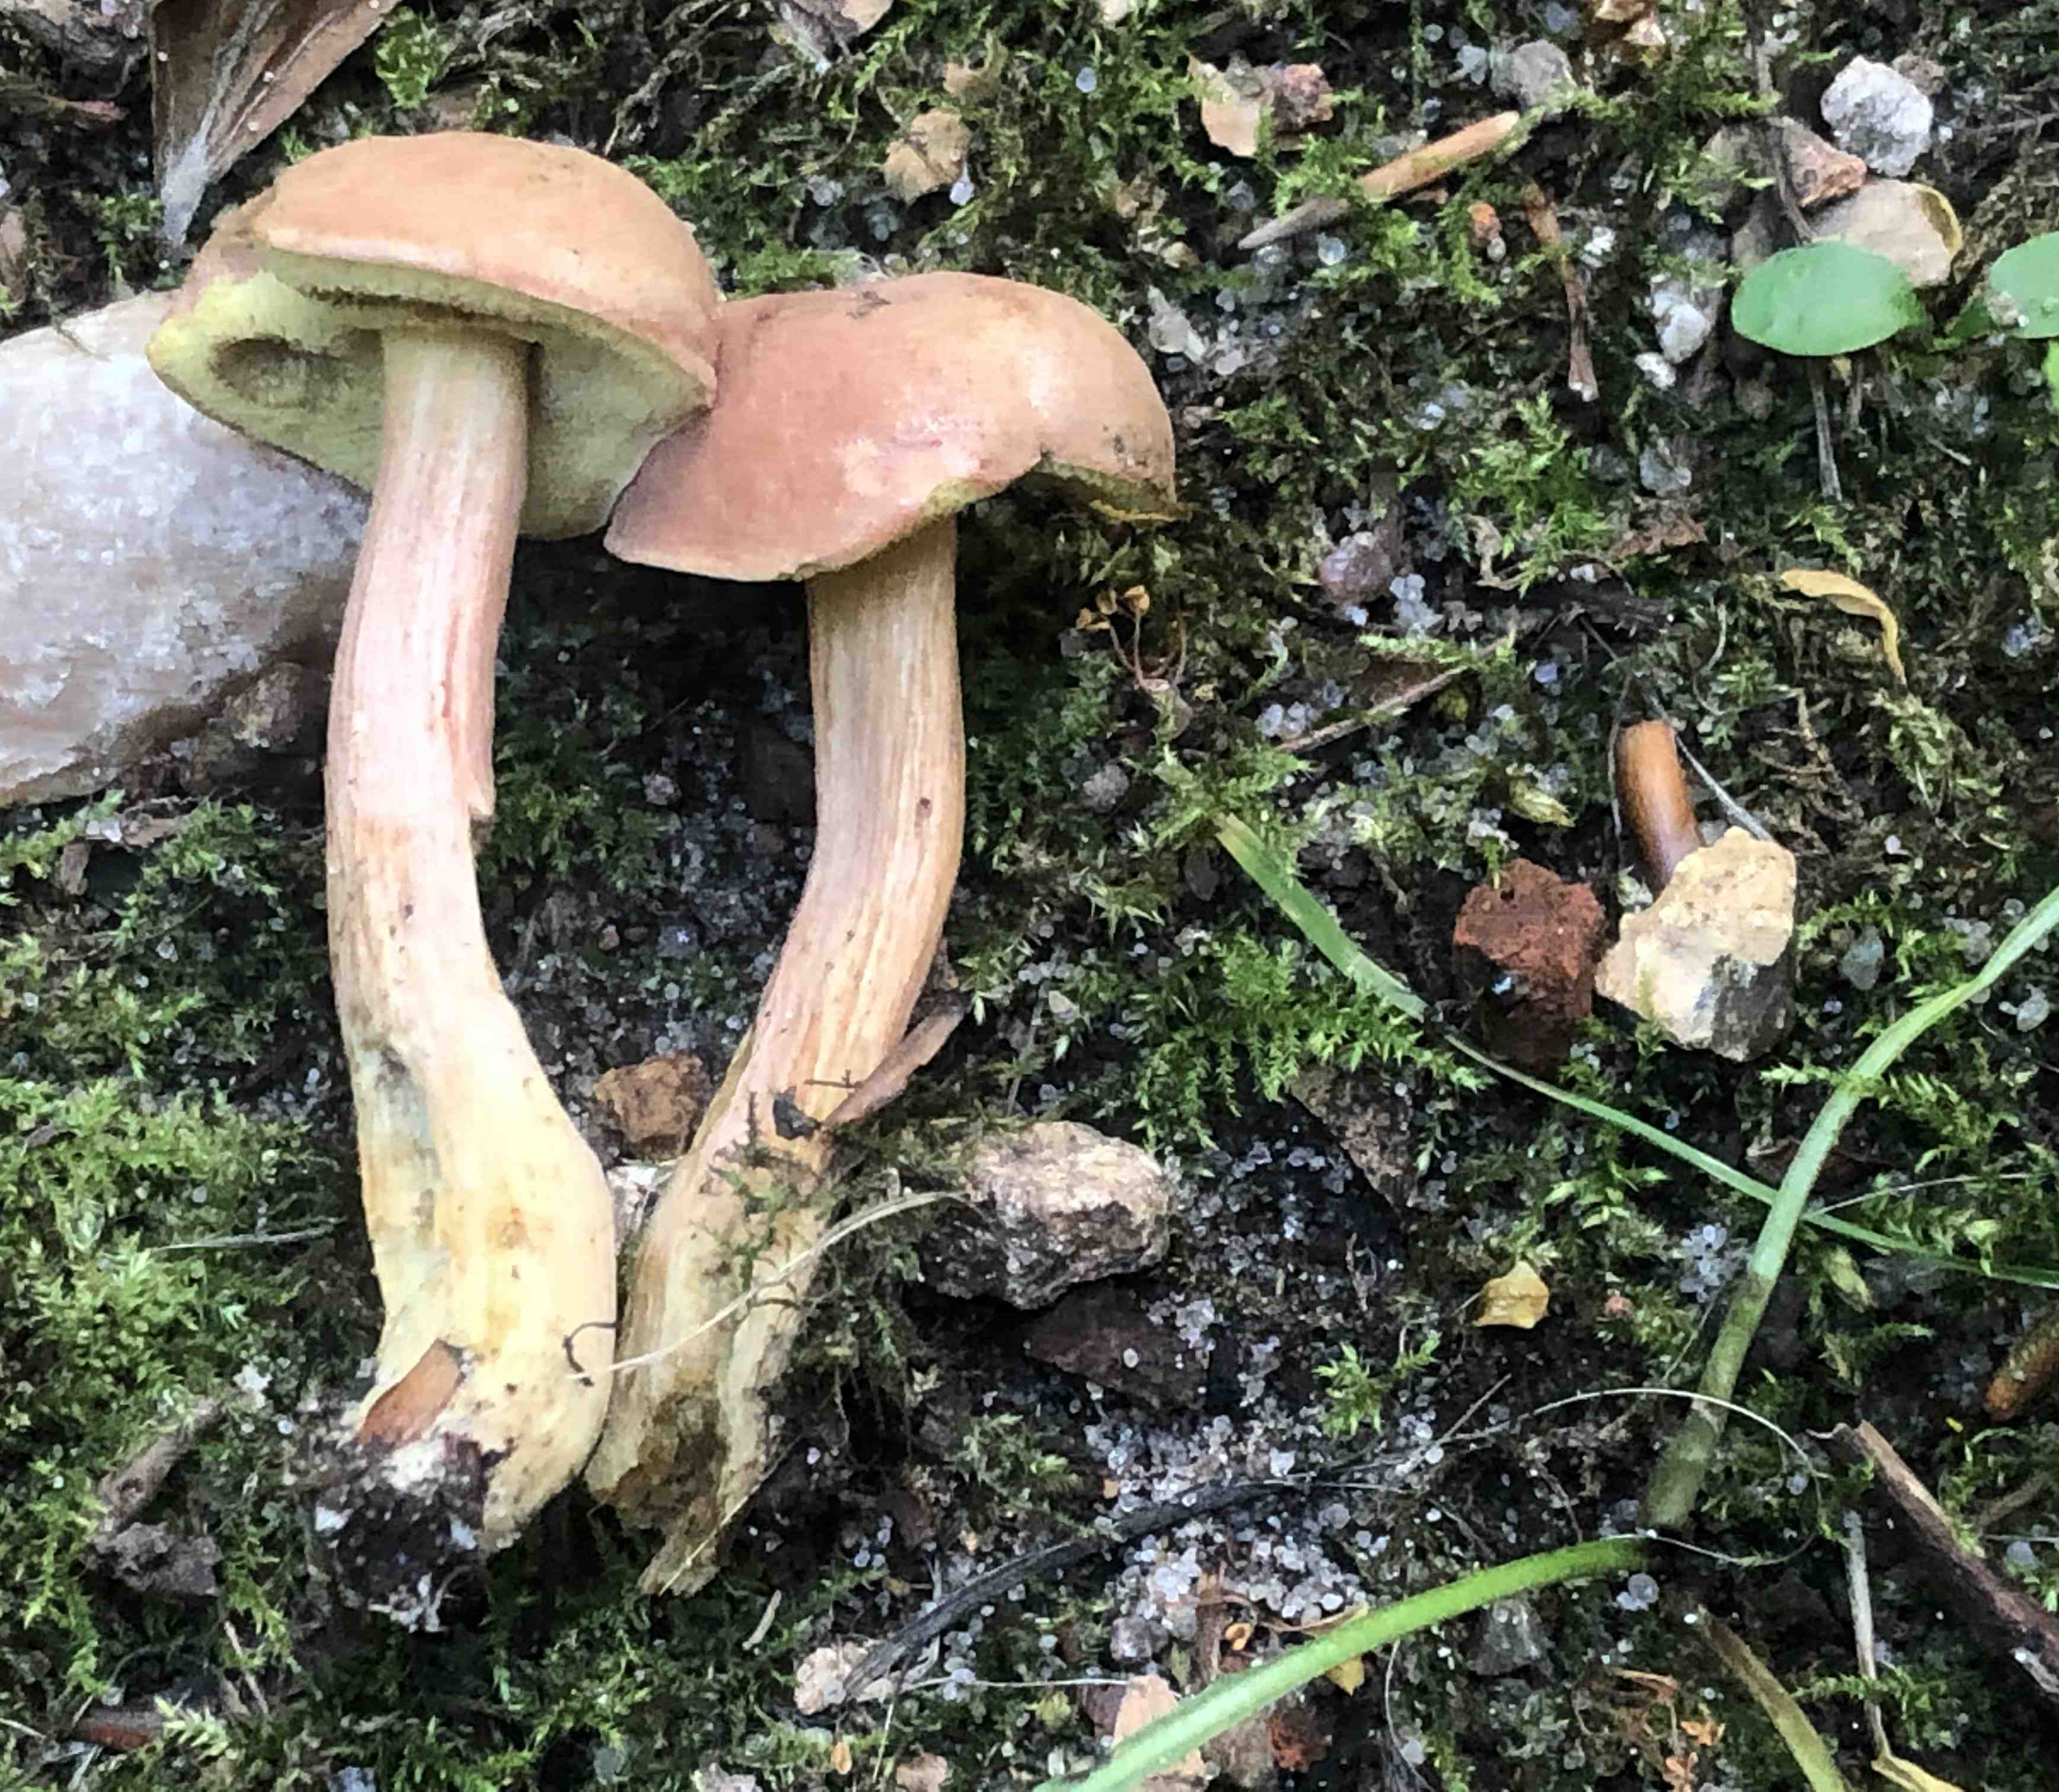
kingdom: Fungi
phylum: Basidiomycota
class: Agaricomycetes
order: Boletales
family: Boletaceae
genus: Hortiboletus
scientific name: Hortiboletus bubalinus
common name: aurora-rørhat
